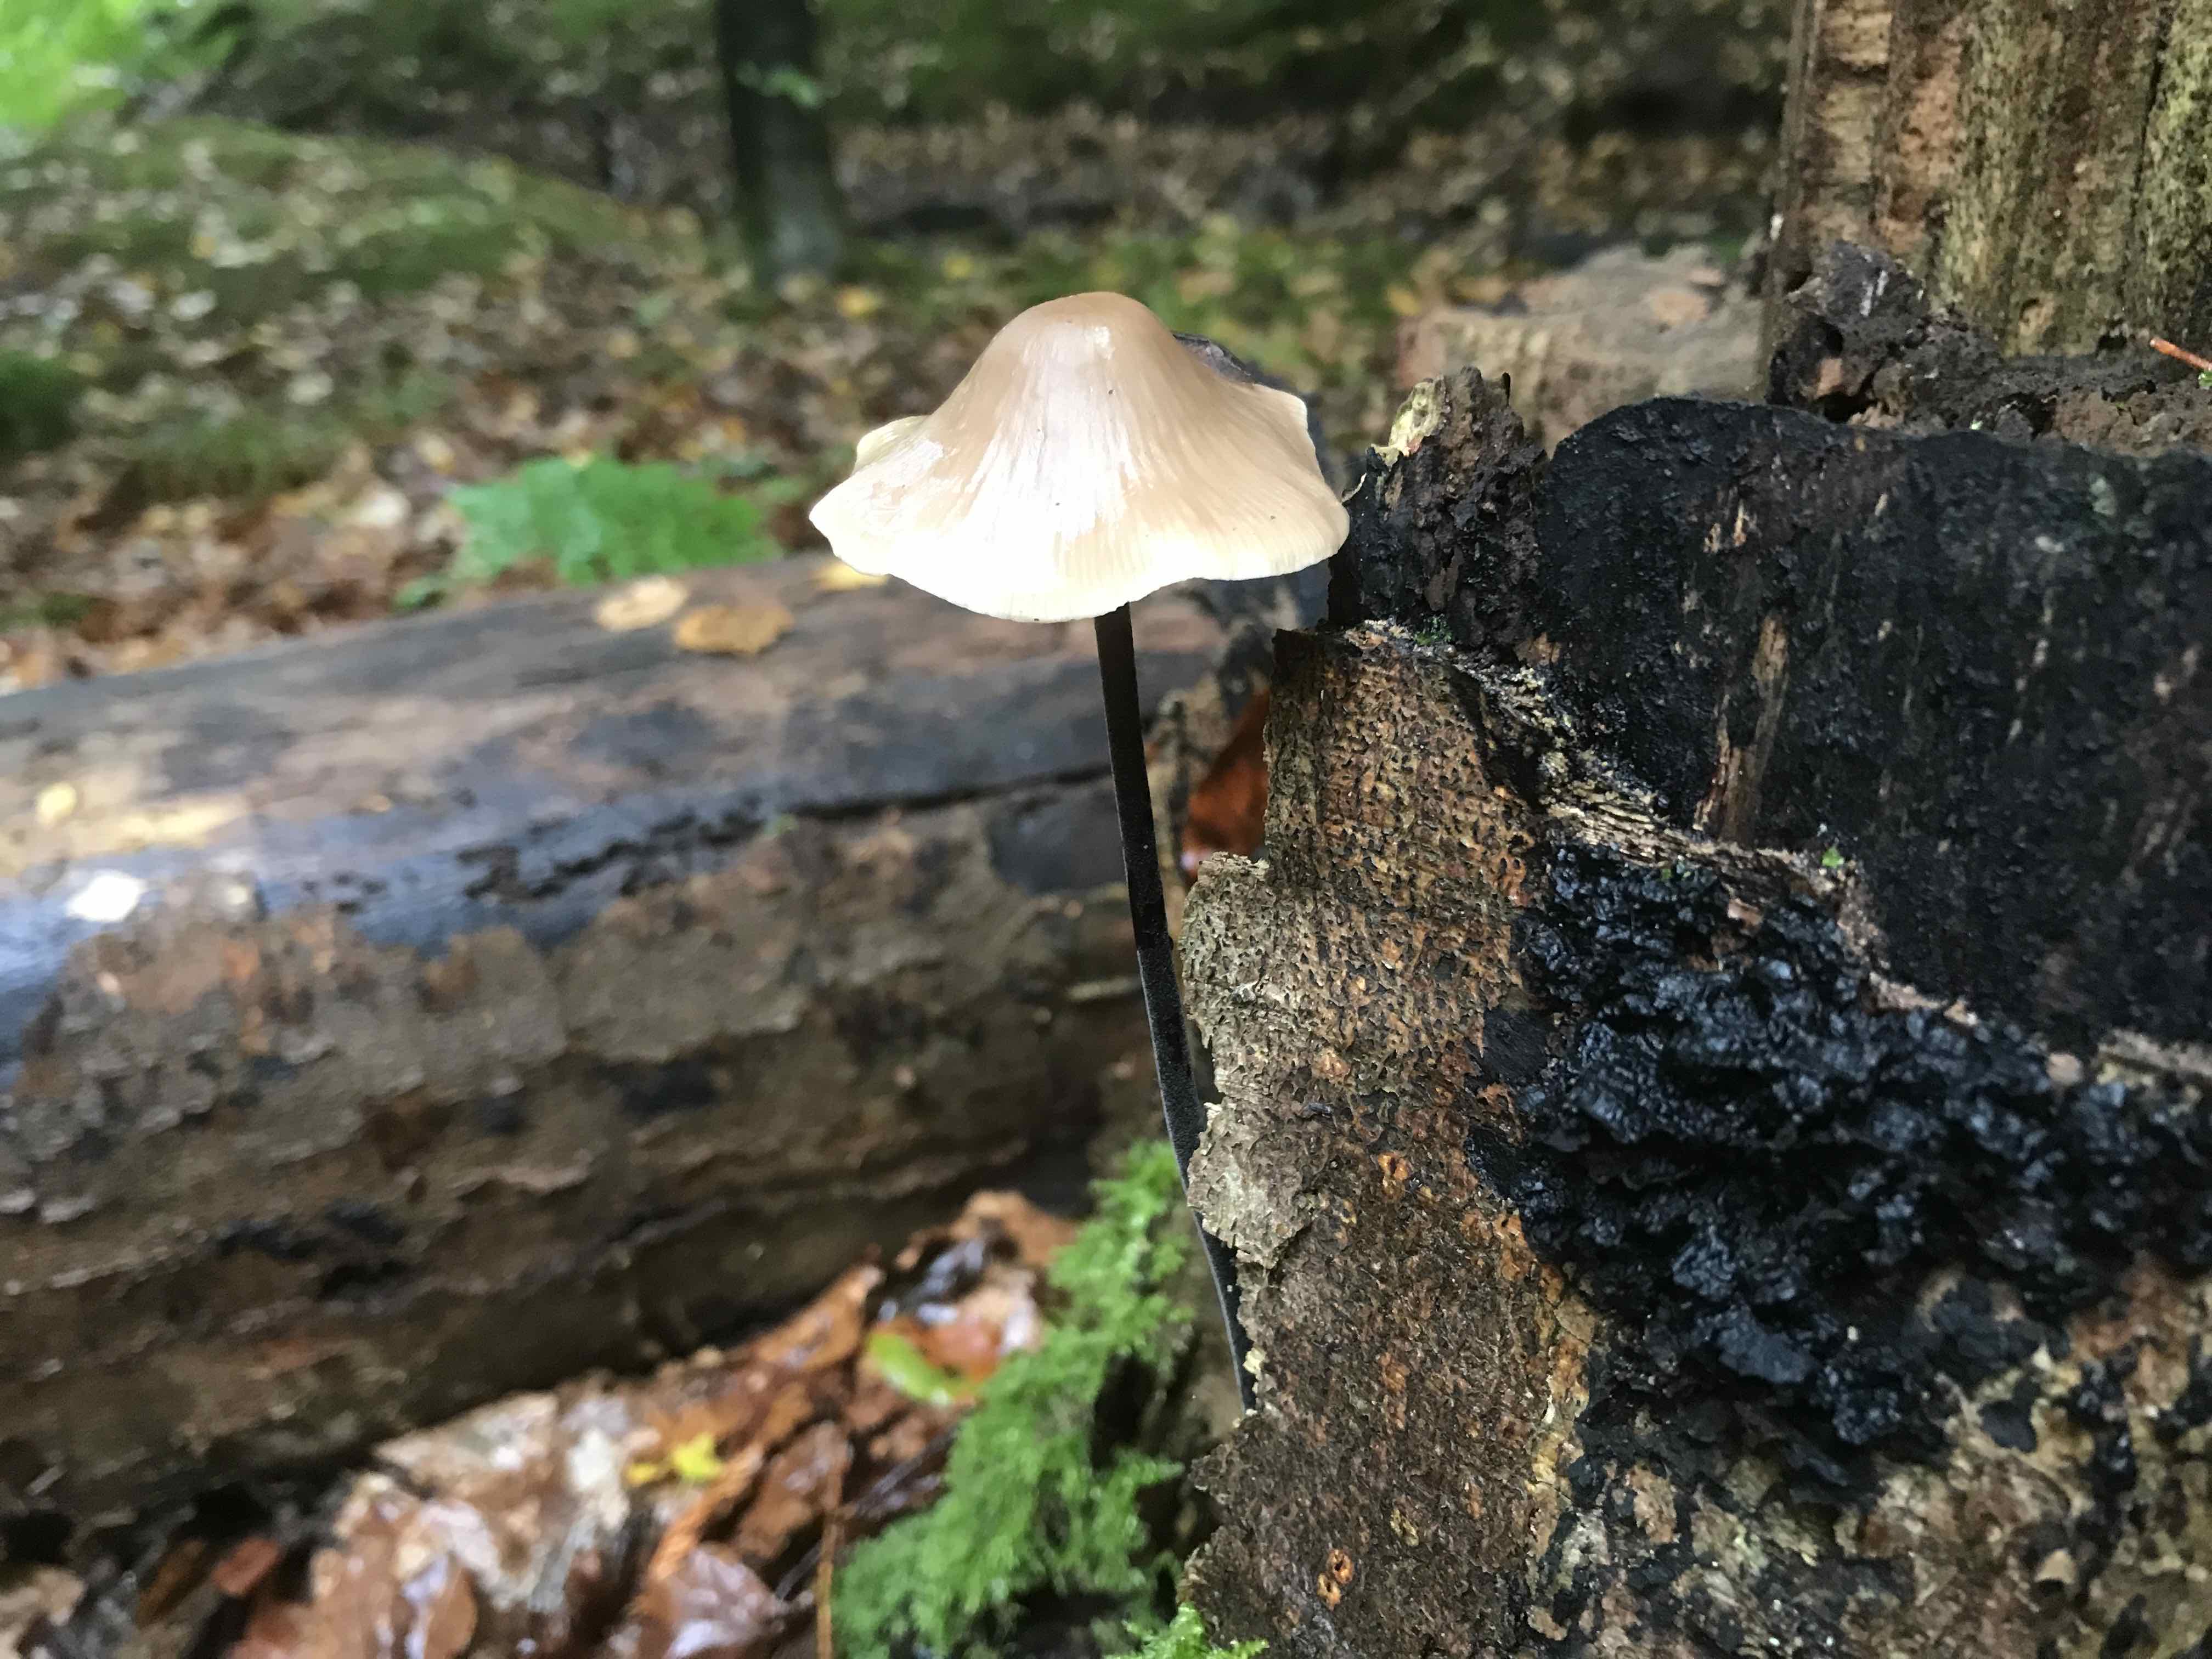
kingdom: Fungi
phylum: Basidiomycota
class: Agaricomycetes
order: Agaricales
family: Omphalotaceae
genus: Mycetinis
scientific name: Mycetinis alliaceus
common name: stor løghat
